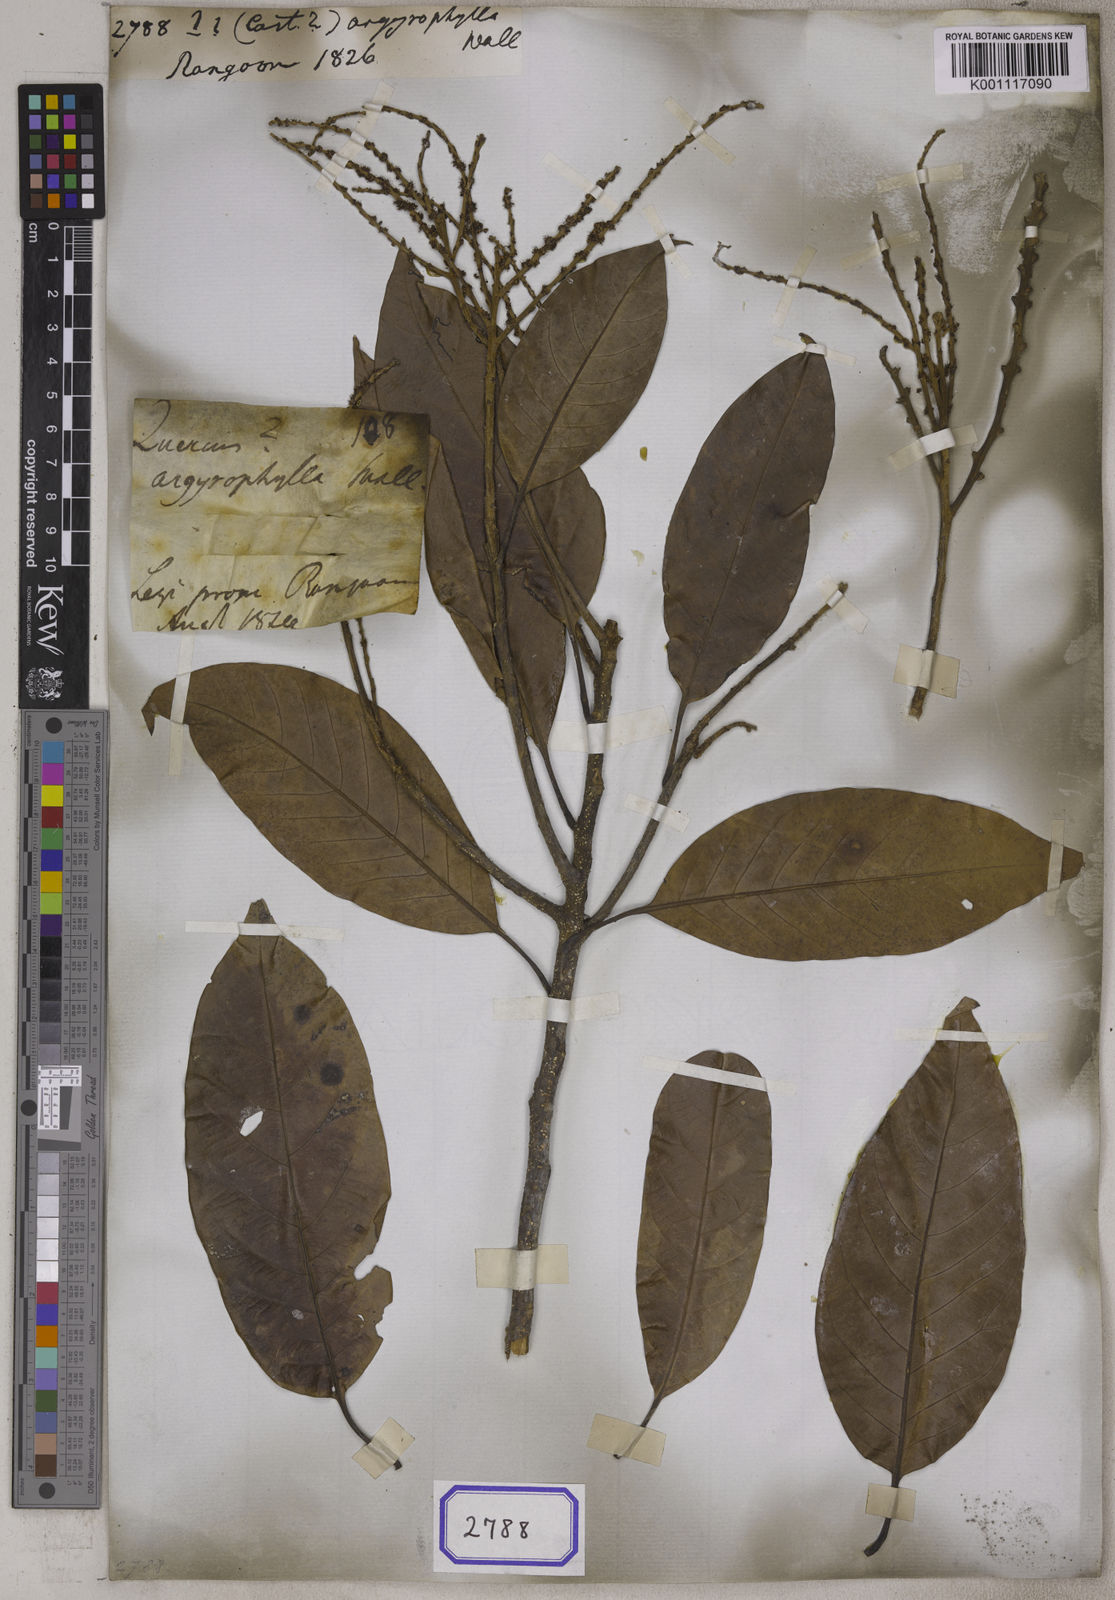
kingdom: Plantae
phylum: Tracheophyta
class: Magnoliopsida
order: Fagales
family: Fagaceae
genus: Castanopsis
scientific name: Castanopsis argentea
